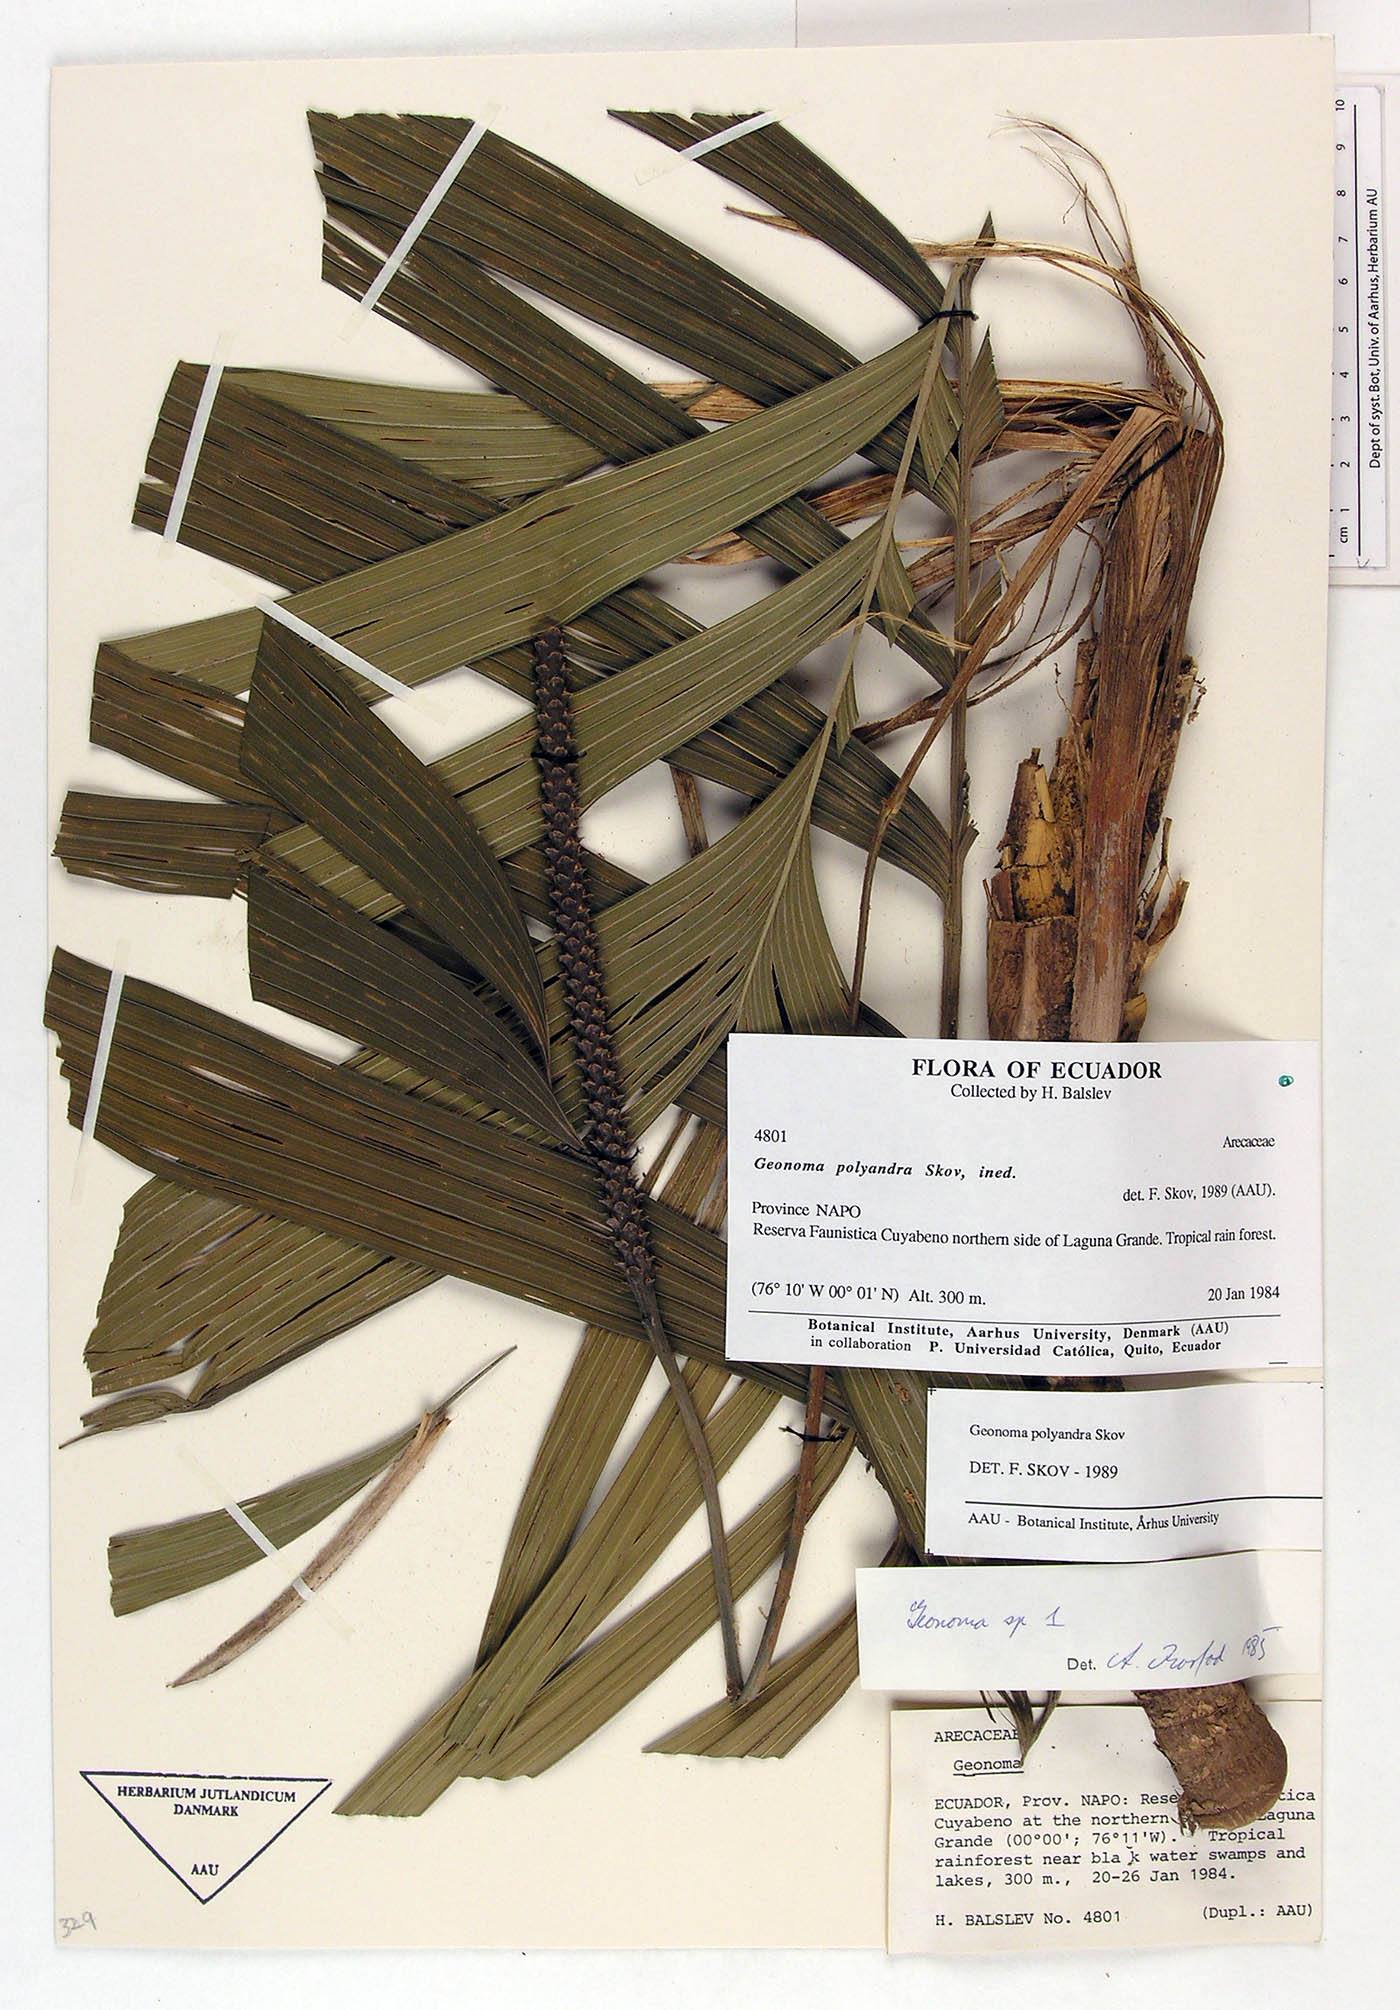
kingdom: Plantae
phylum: Tracheophyta
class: Liliopsida
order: Arecales
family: Arecaceae
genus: Geonoma
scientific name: Geonoma multisecta
